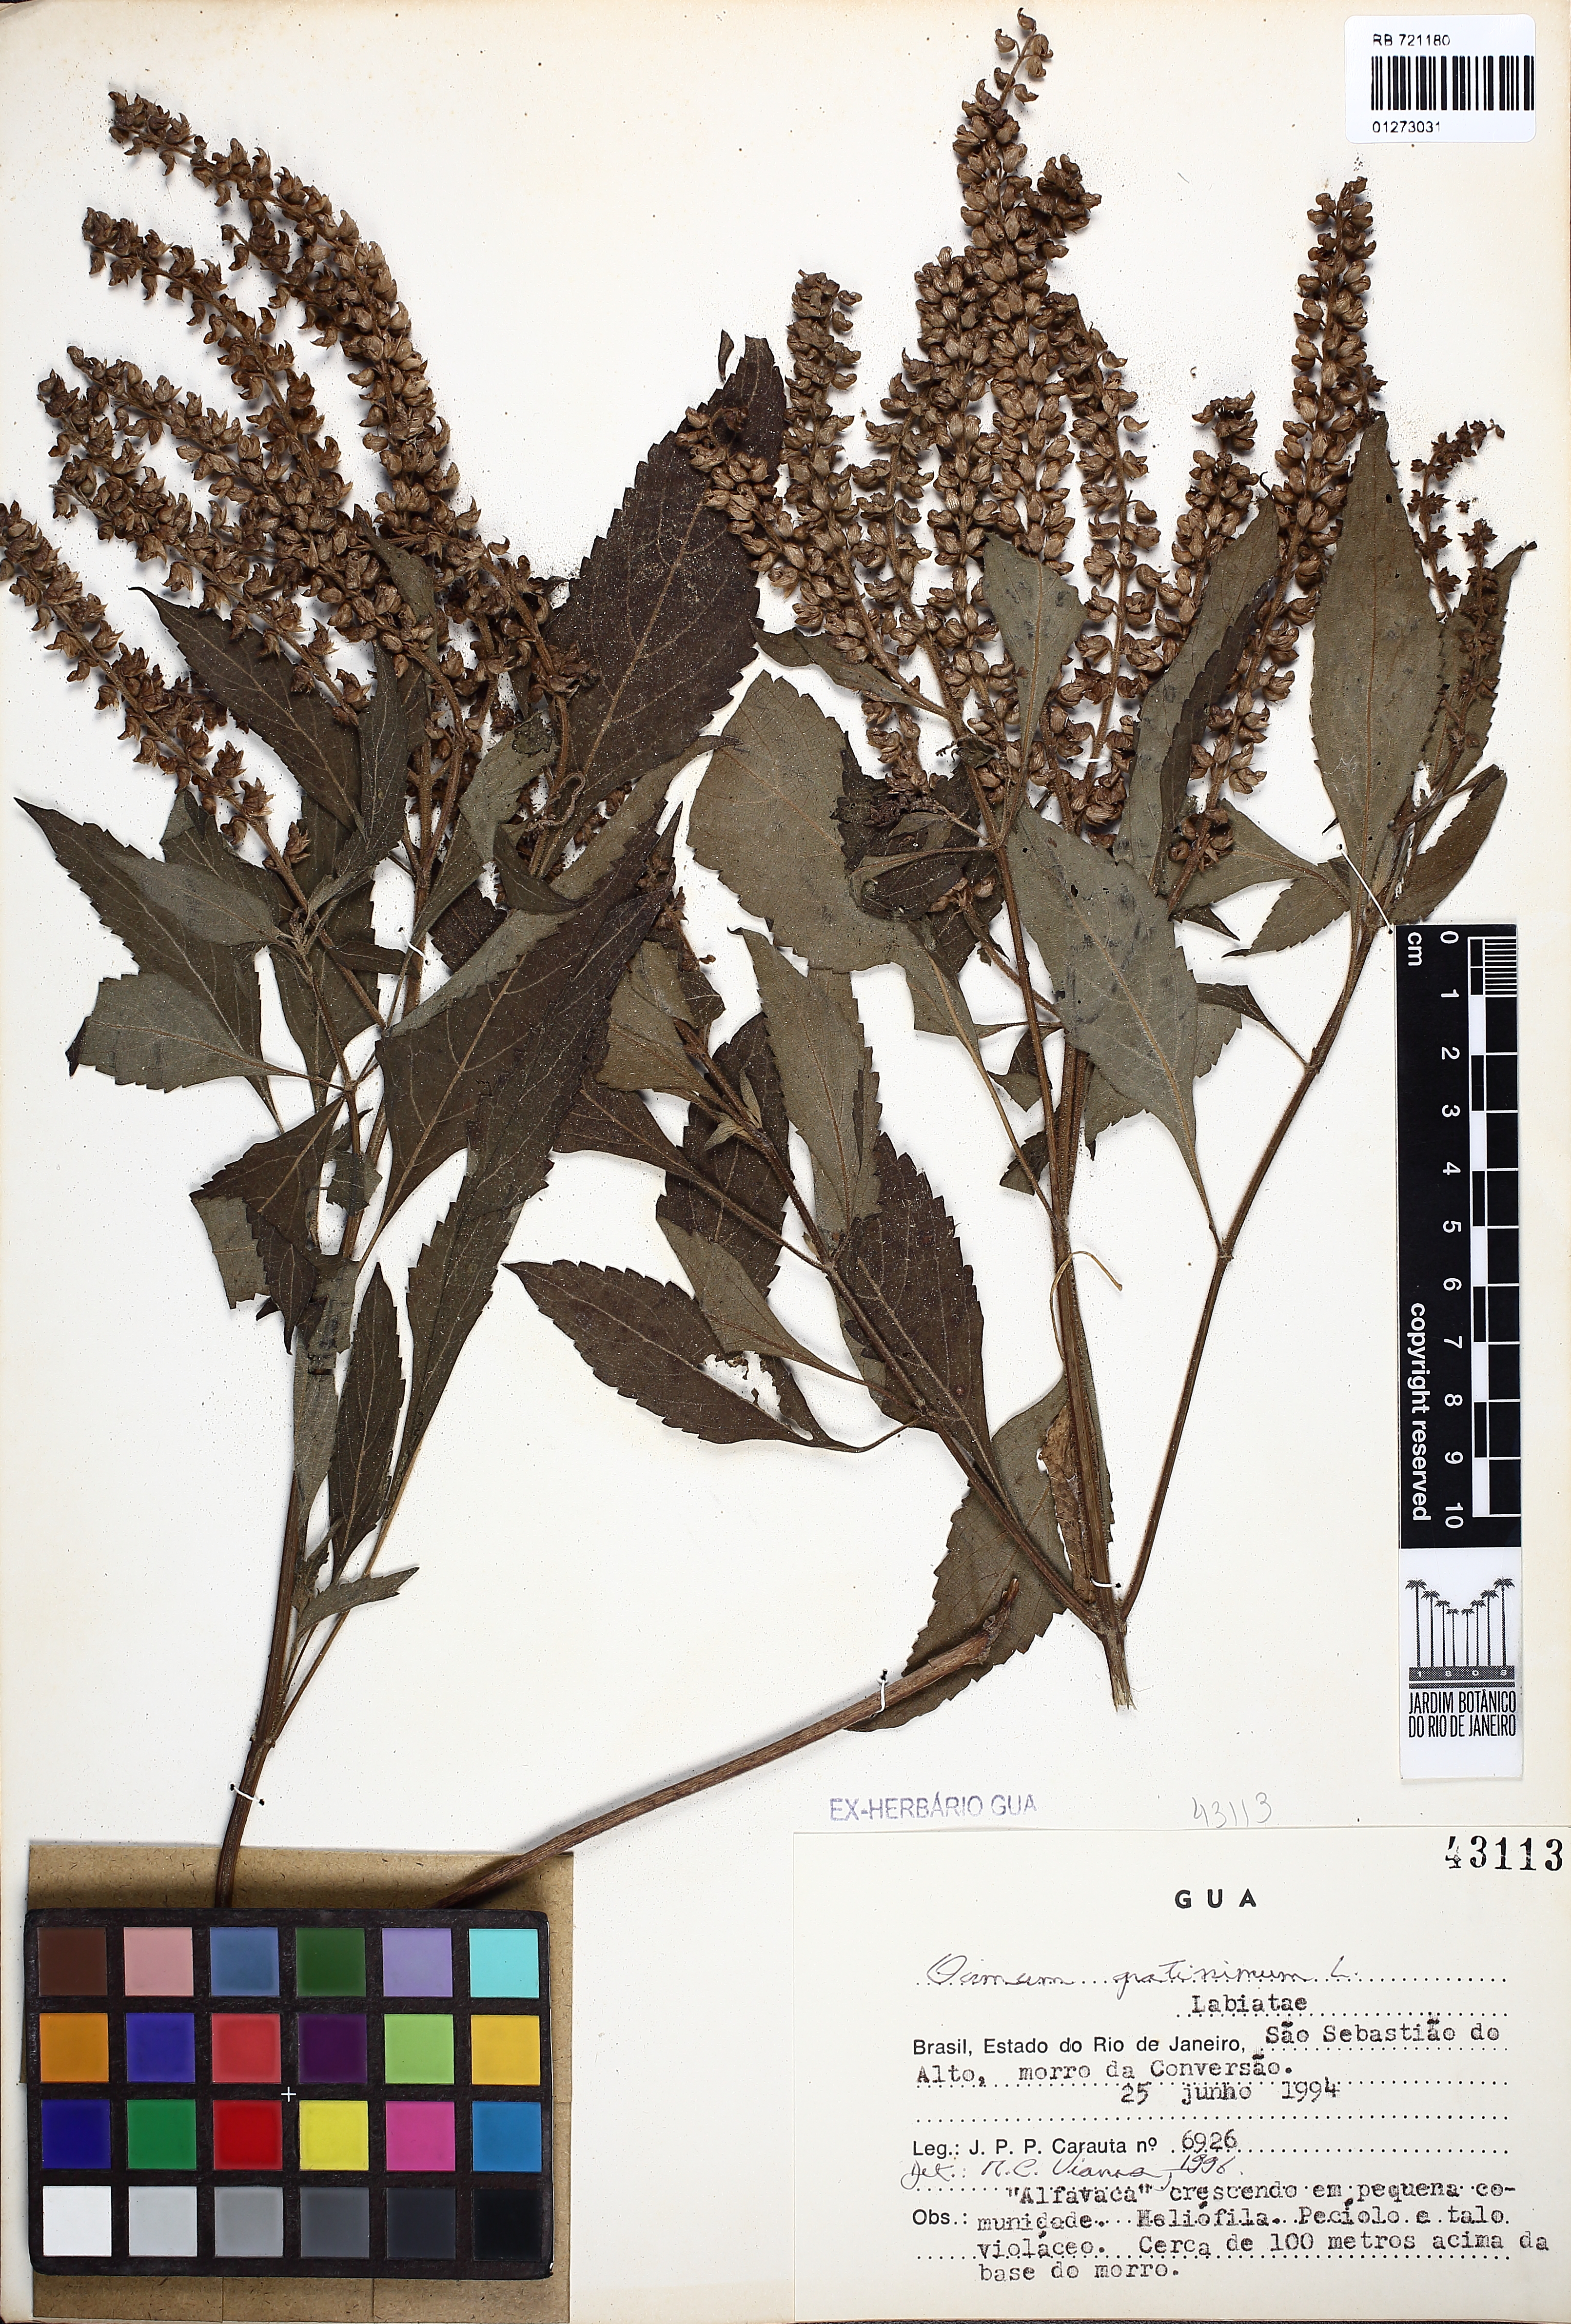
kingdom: Plantae
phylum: Tracheophyta
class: Magnoliopsida
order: Lamiales
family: Lamiaceae
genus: Ocimum
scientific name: Ocimum gratissimum
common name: African basil
